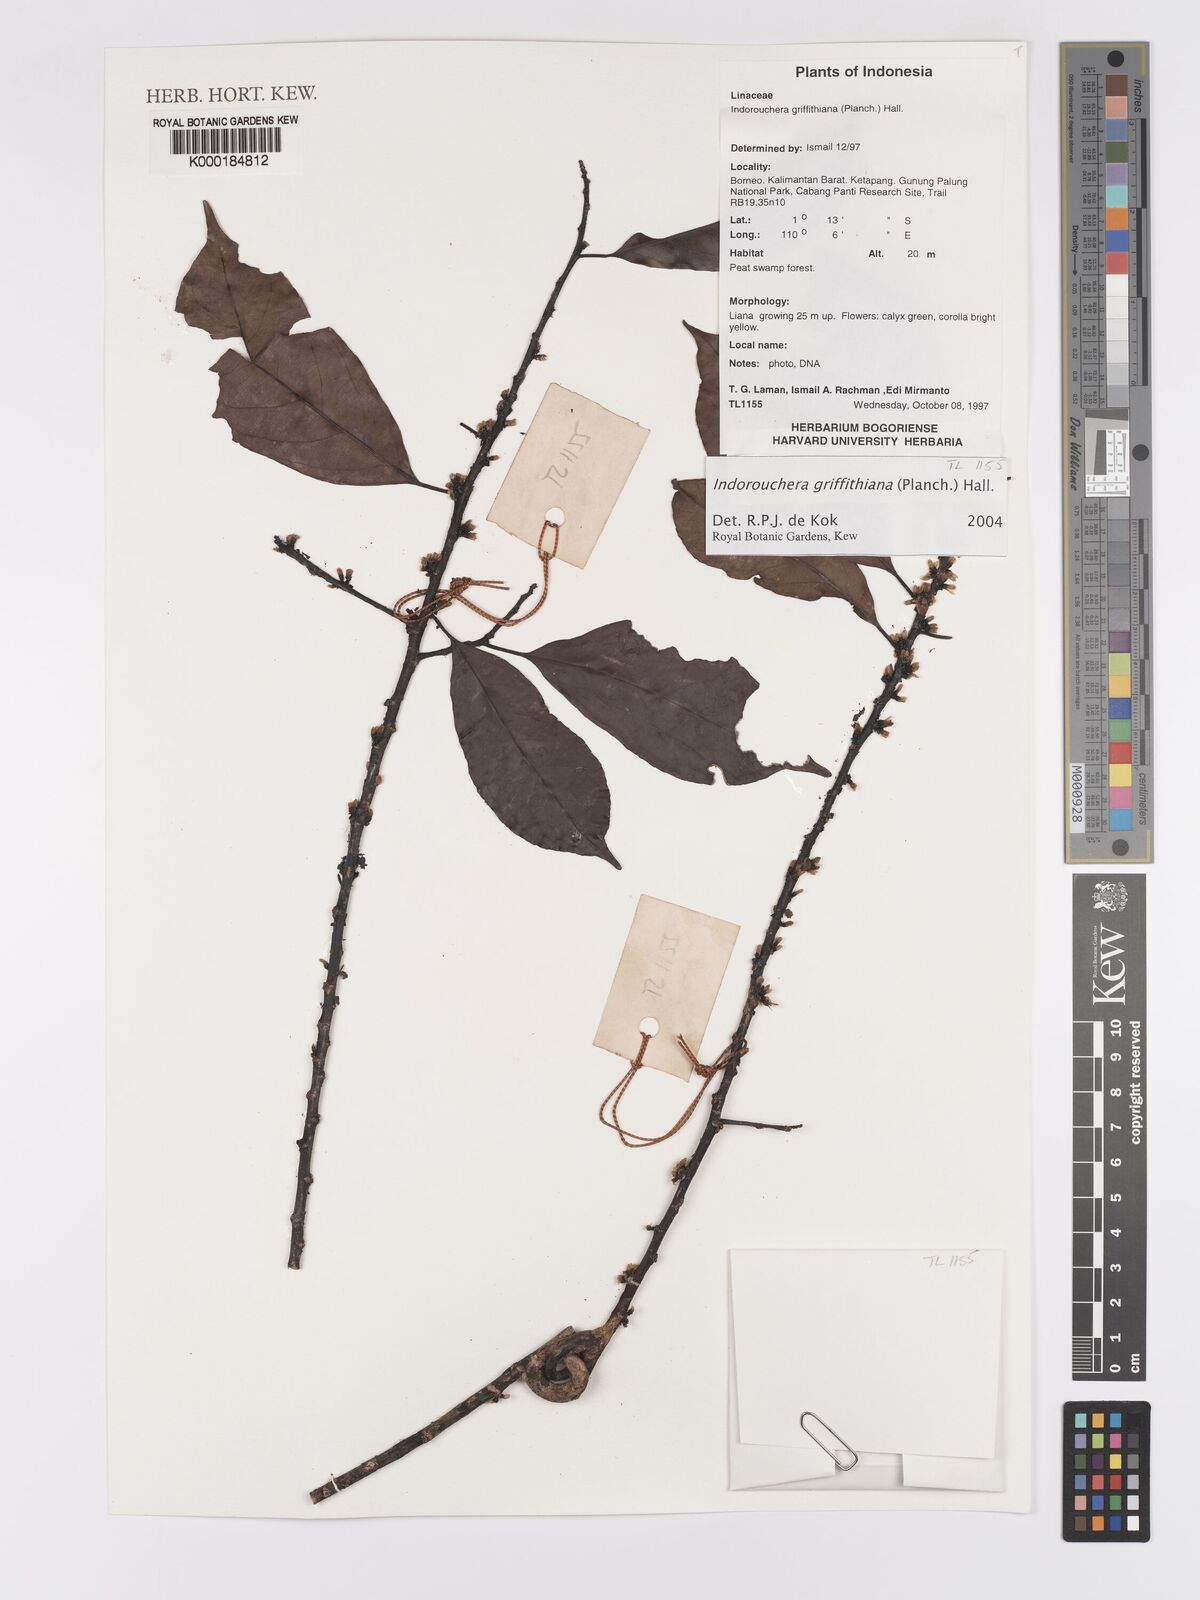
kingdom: Plantae
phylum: Tracheophyta
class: Magnoliopsida
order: Malpighiales
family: Linaceae
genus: Indorouchera
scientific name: Indorouchera griffithiana
